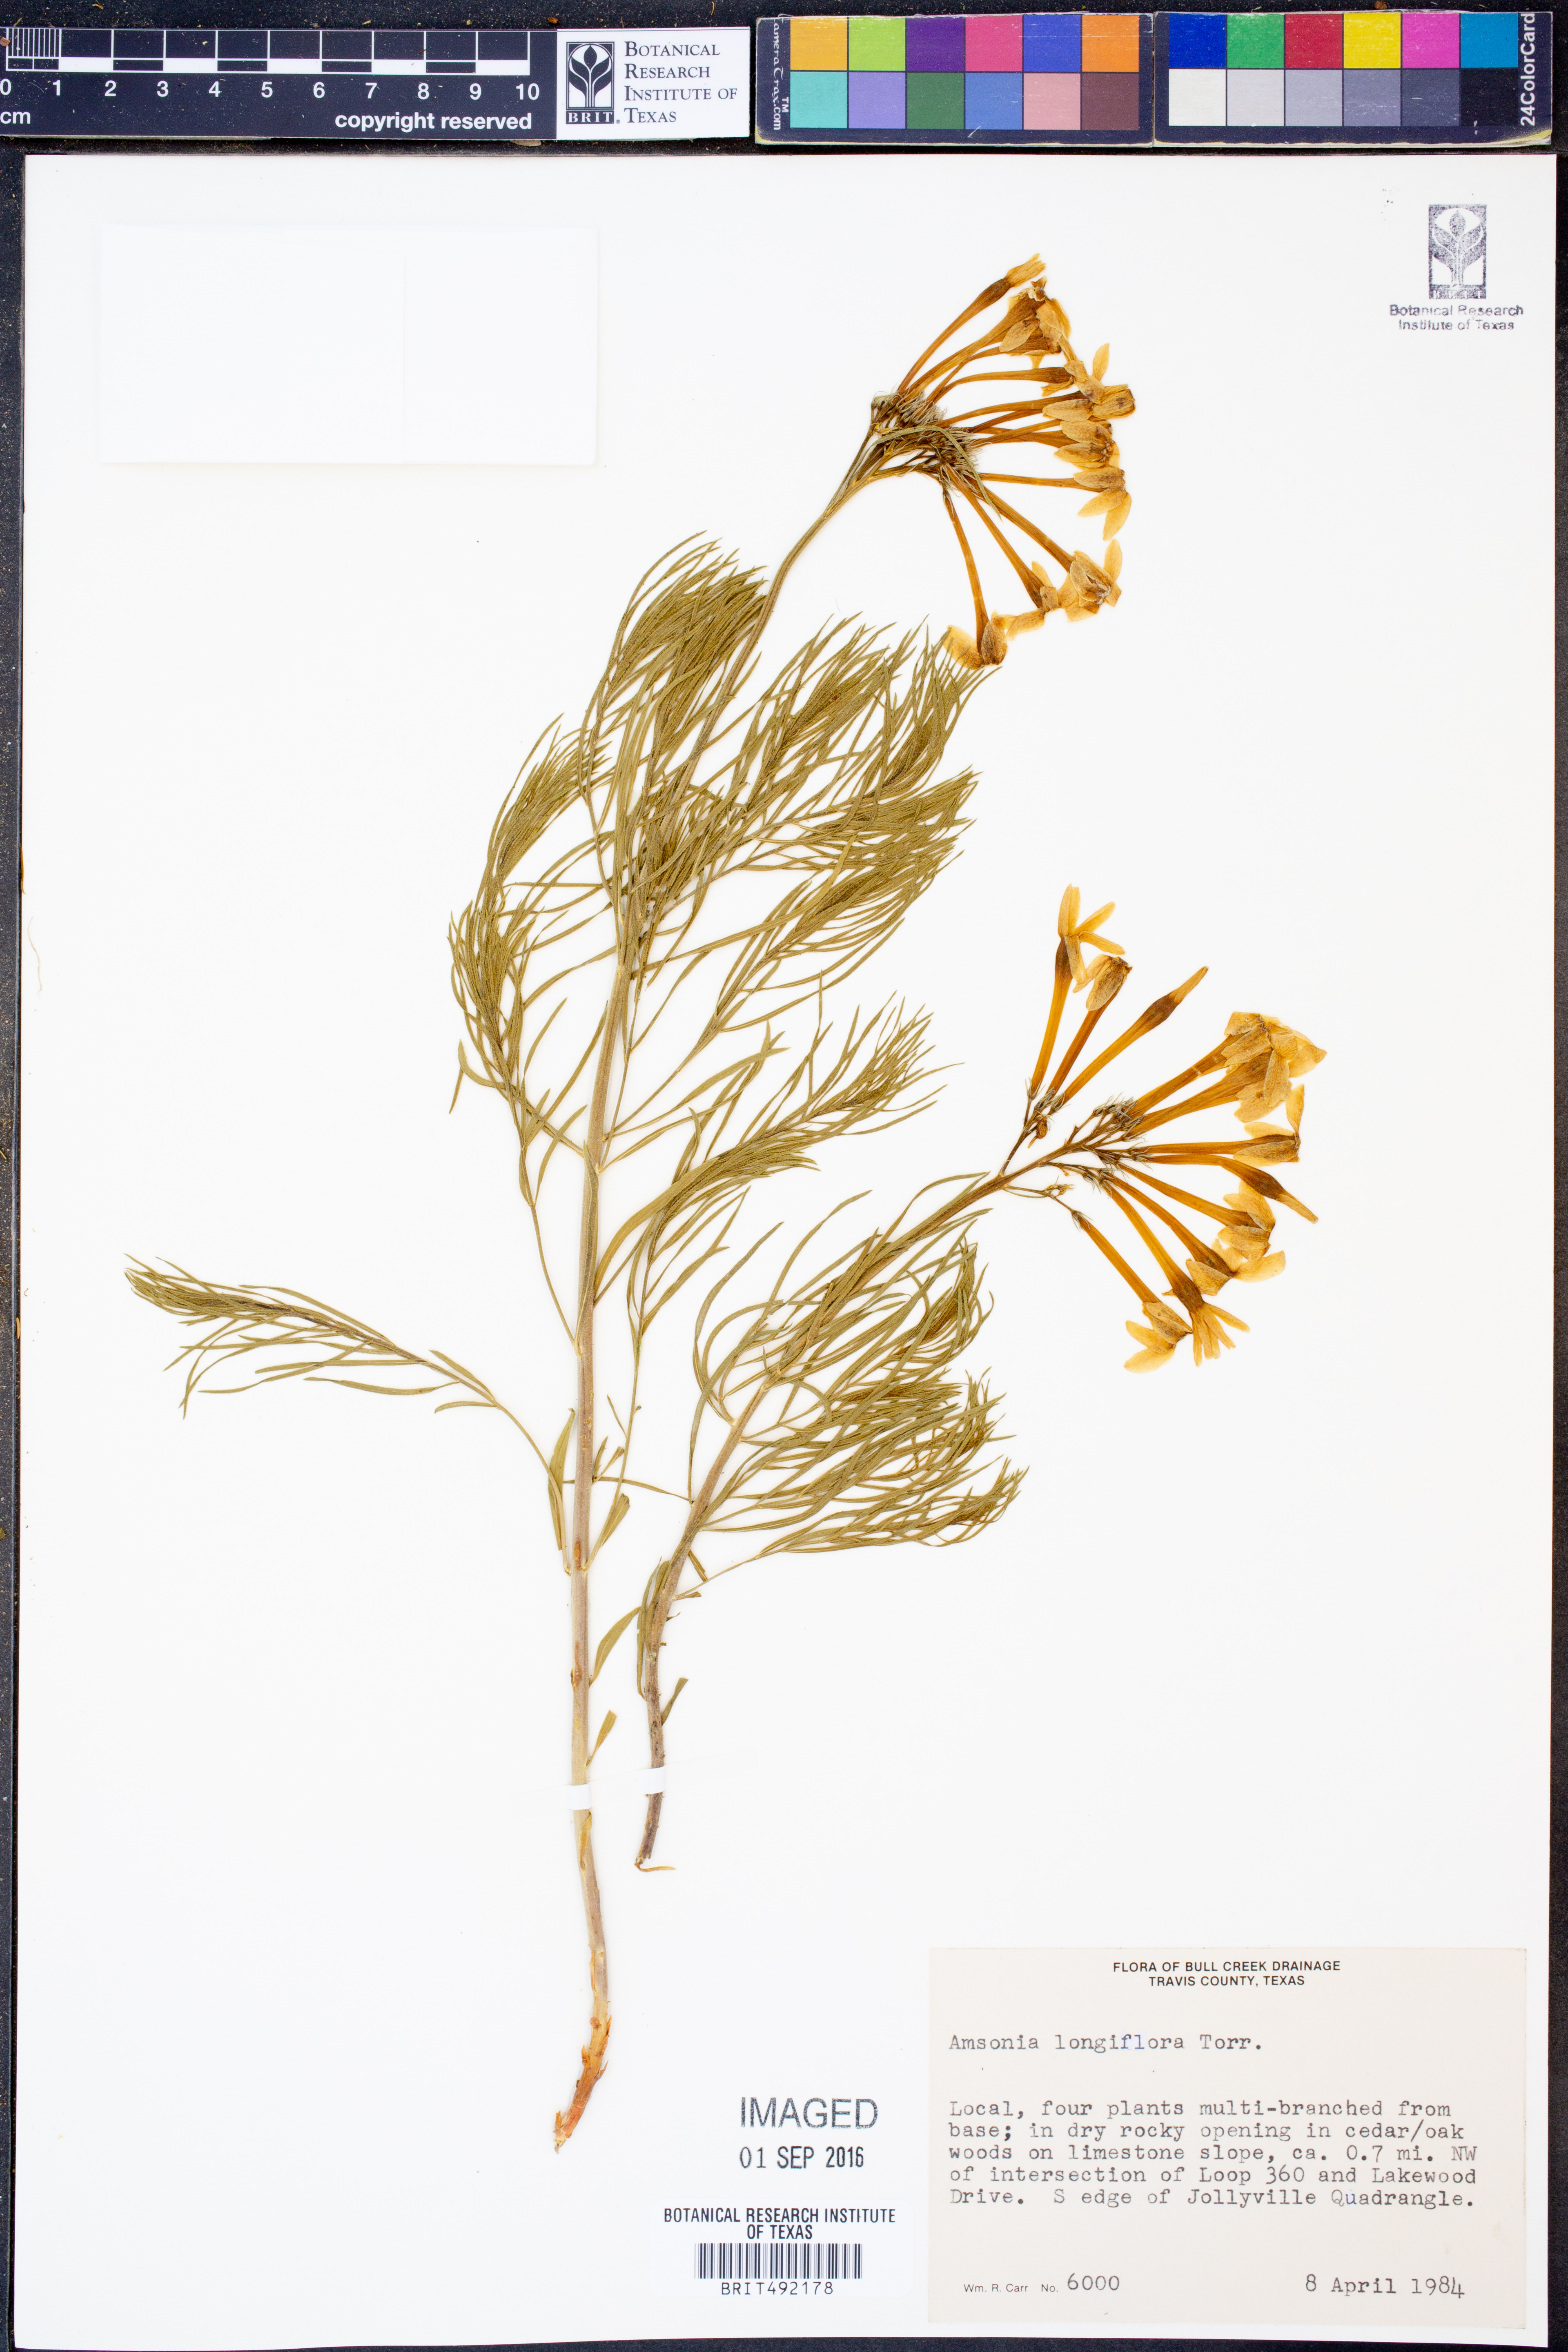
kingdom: Plantae
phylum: Tracheophyta
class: Magnoliopsida
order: Gentianales
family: Apocynaceae
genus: Amsonia
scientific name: Amsonia longiflora
